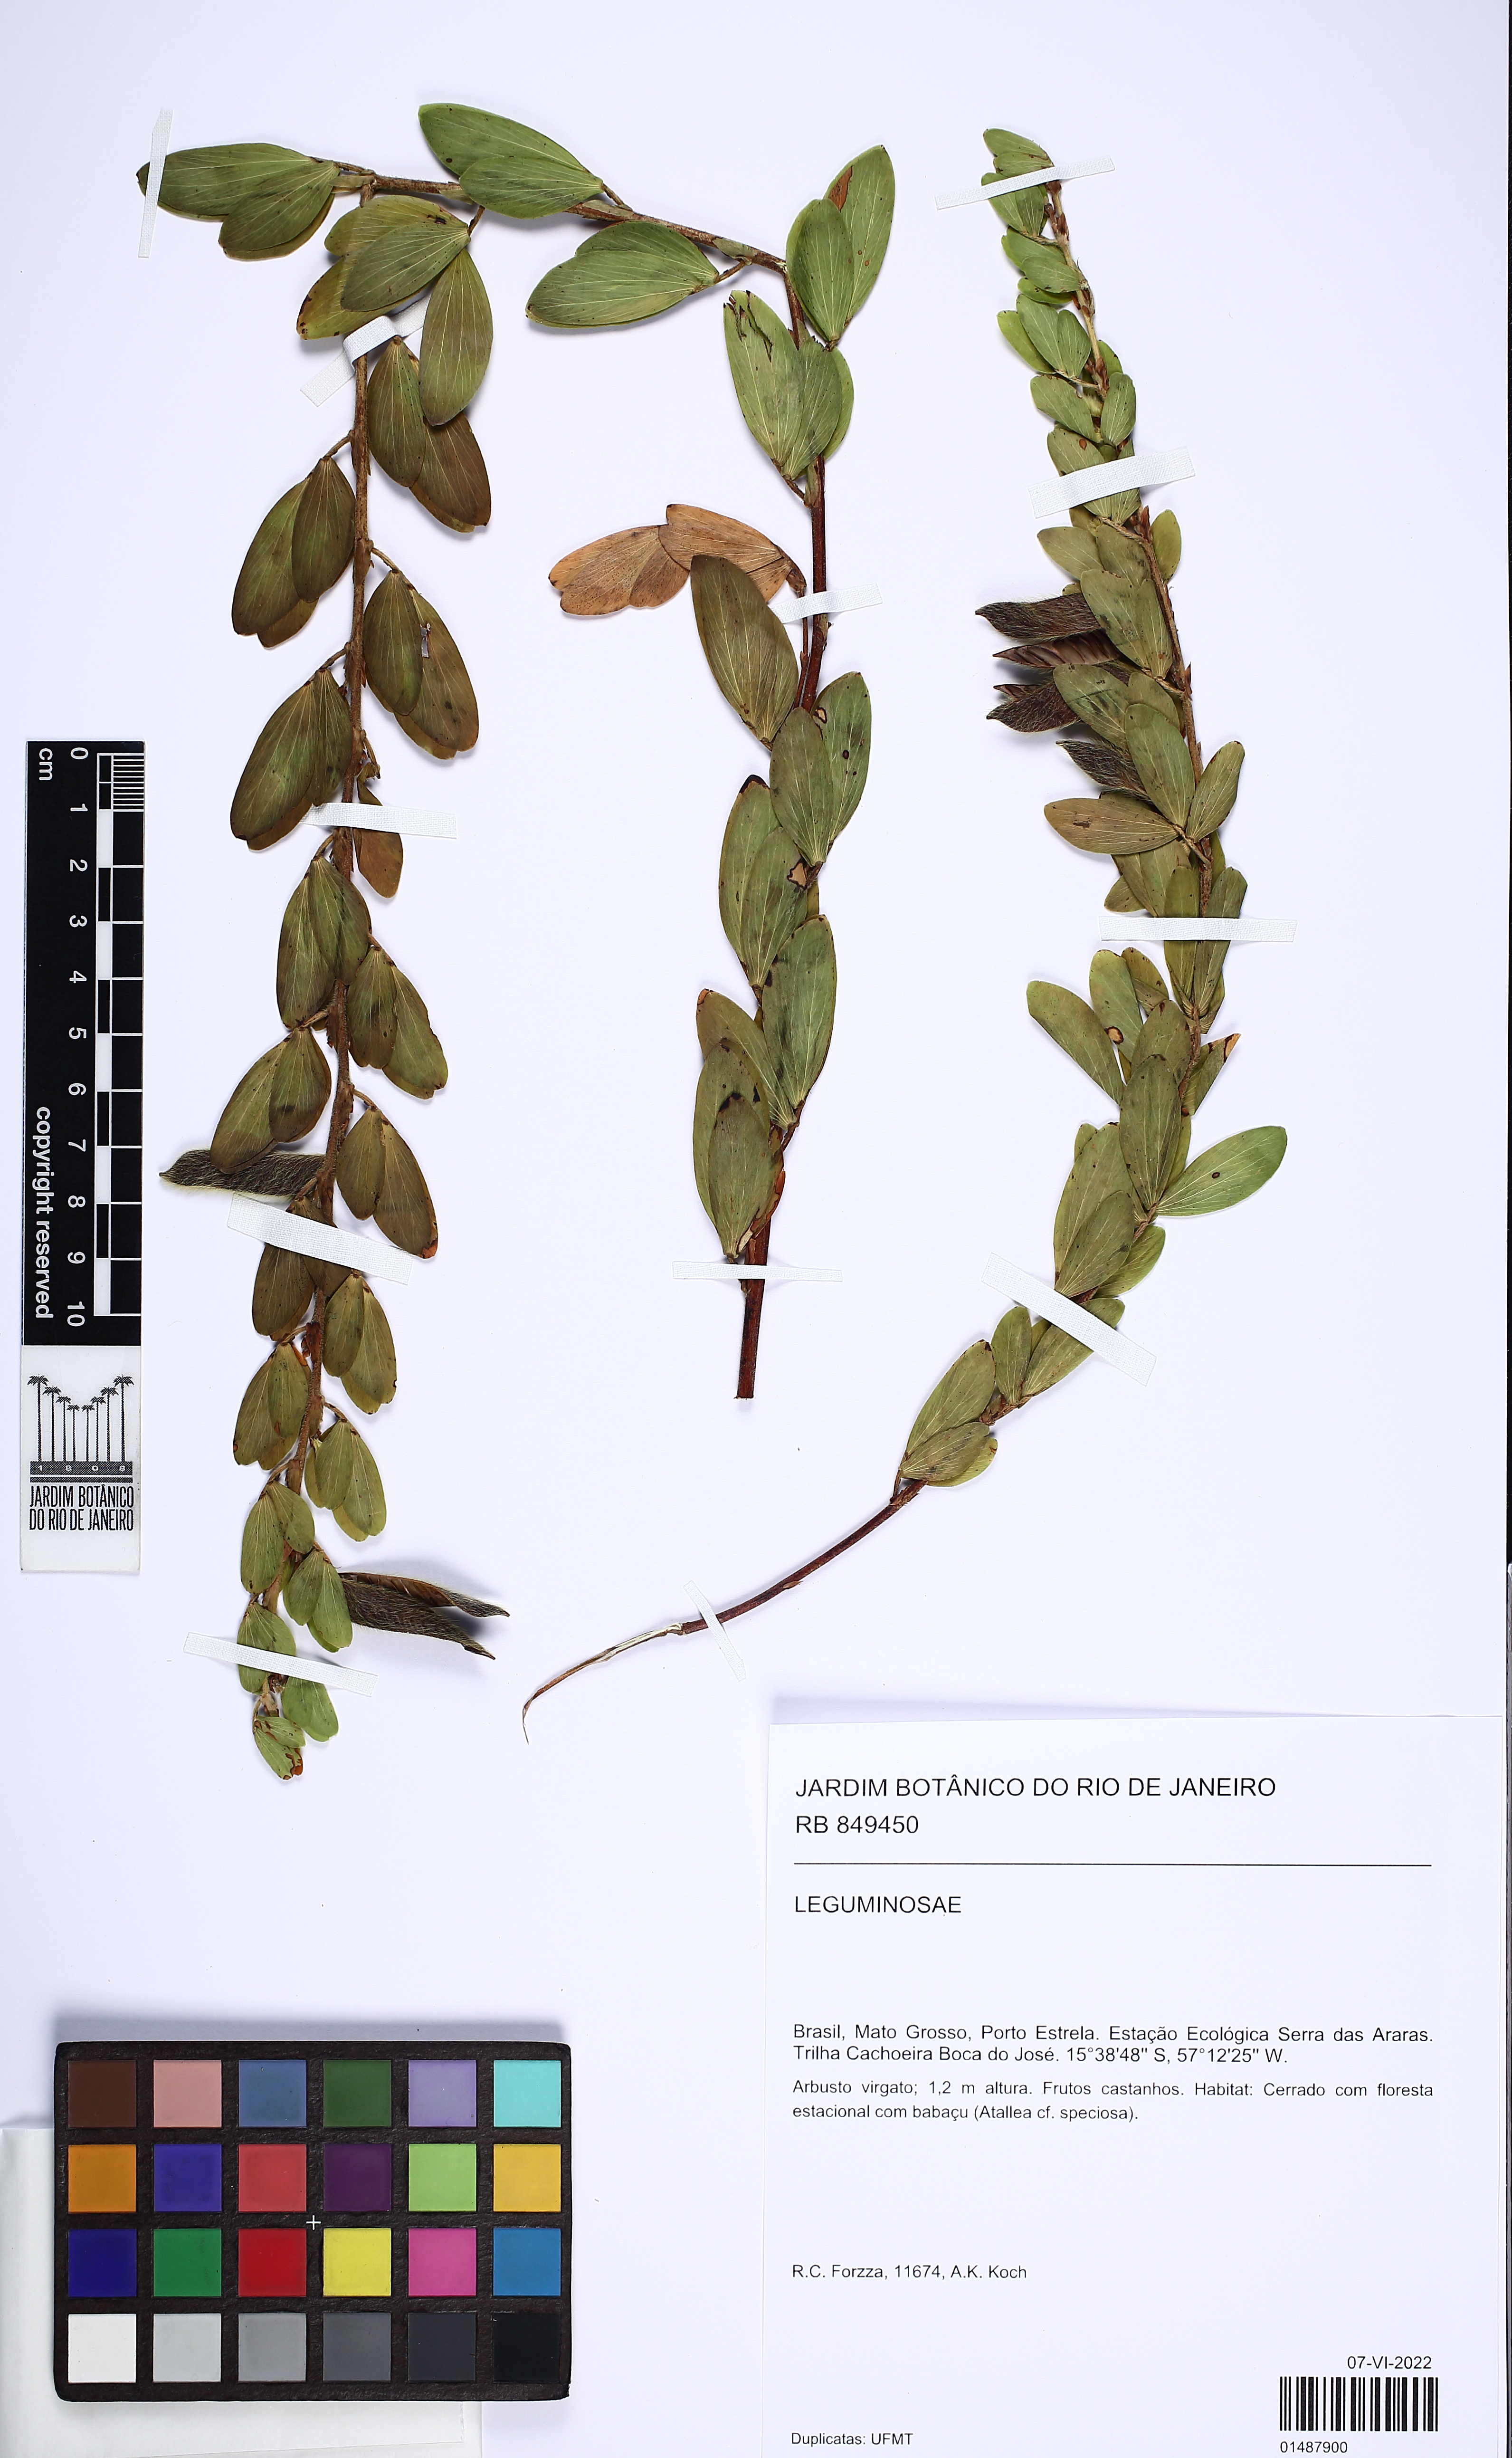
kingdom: Plantae
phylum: Tracheophyta
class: Magnoliopsida
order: Fabales
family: Fabaceae
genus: Chamaecrista
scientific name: Chamaecrista desvauxii
